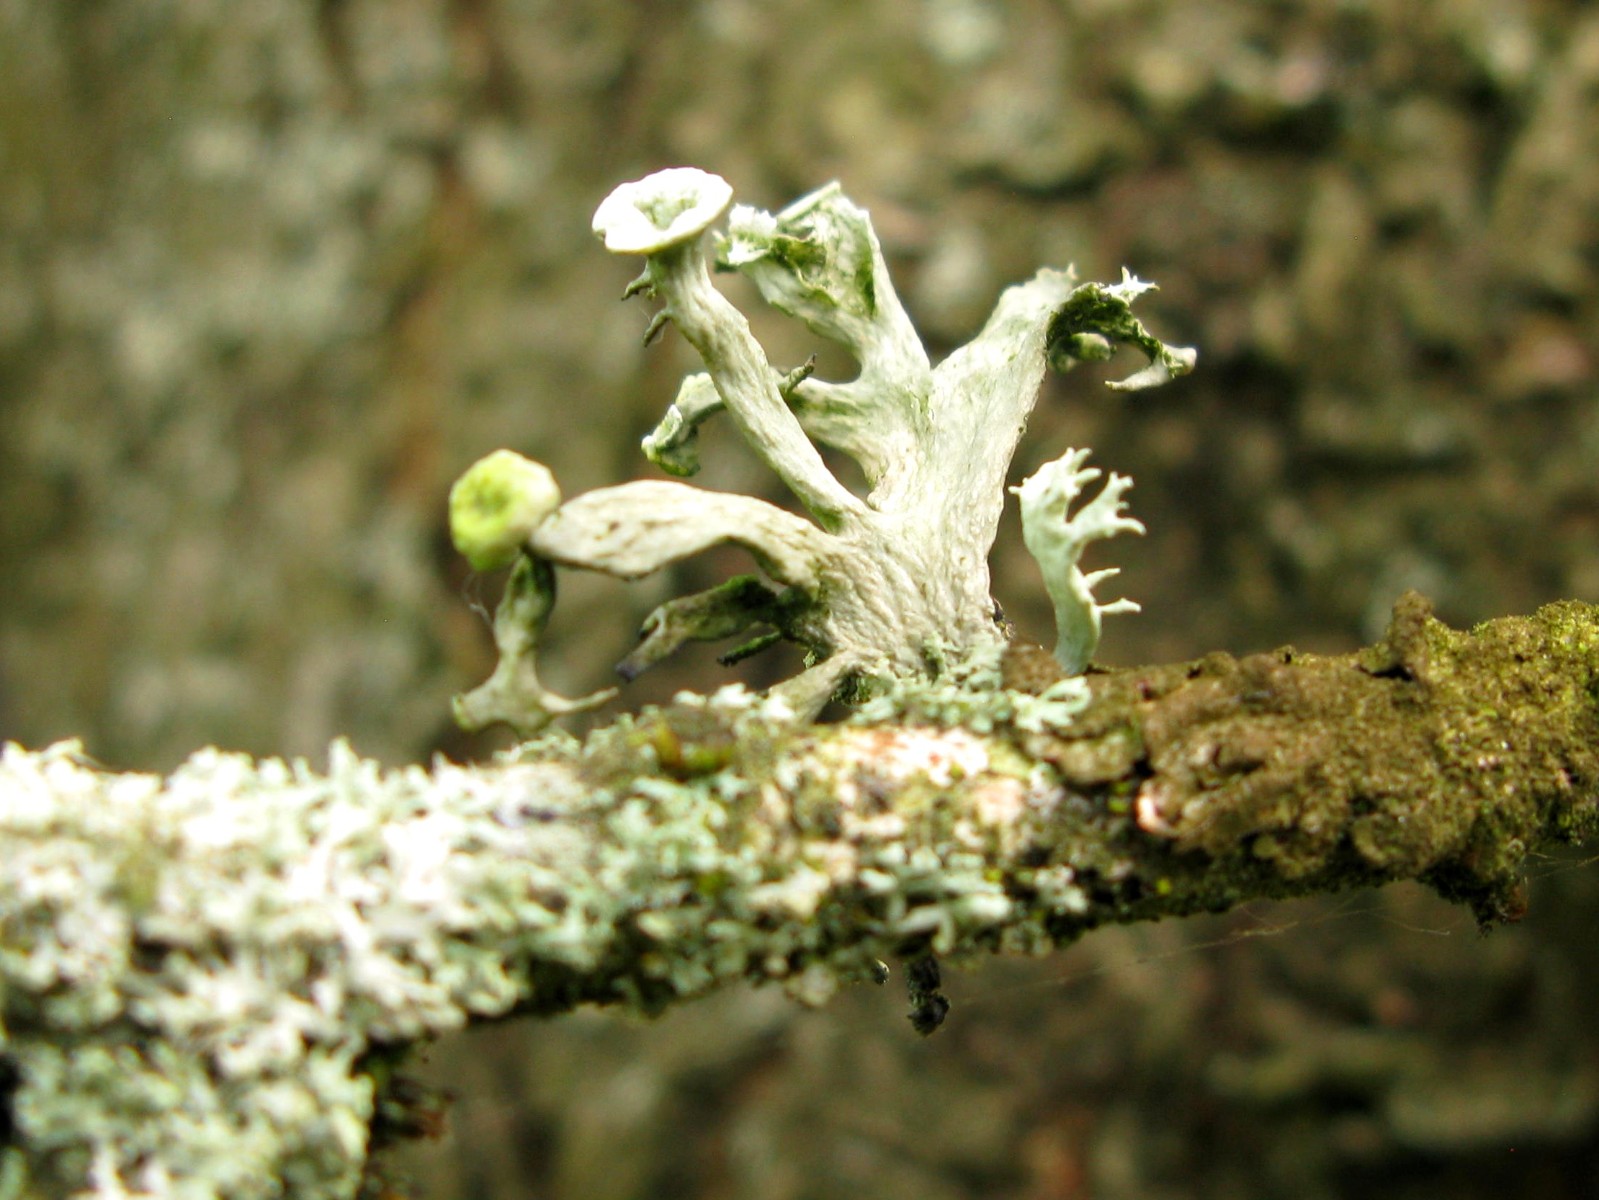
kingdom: Fungi
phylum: Ascomycota
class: Lecanoromycetes
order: Lecanorales
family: Ramalinaceae
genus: Ramalina
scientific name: Ramalina fastigiata
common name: tue-grenlav
